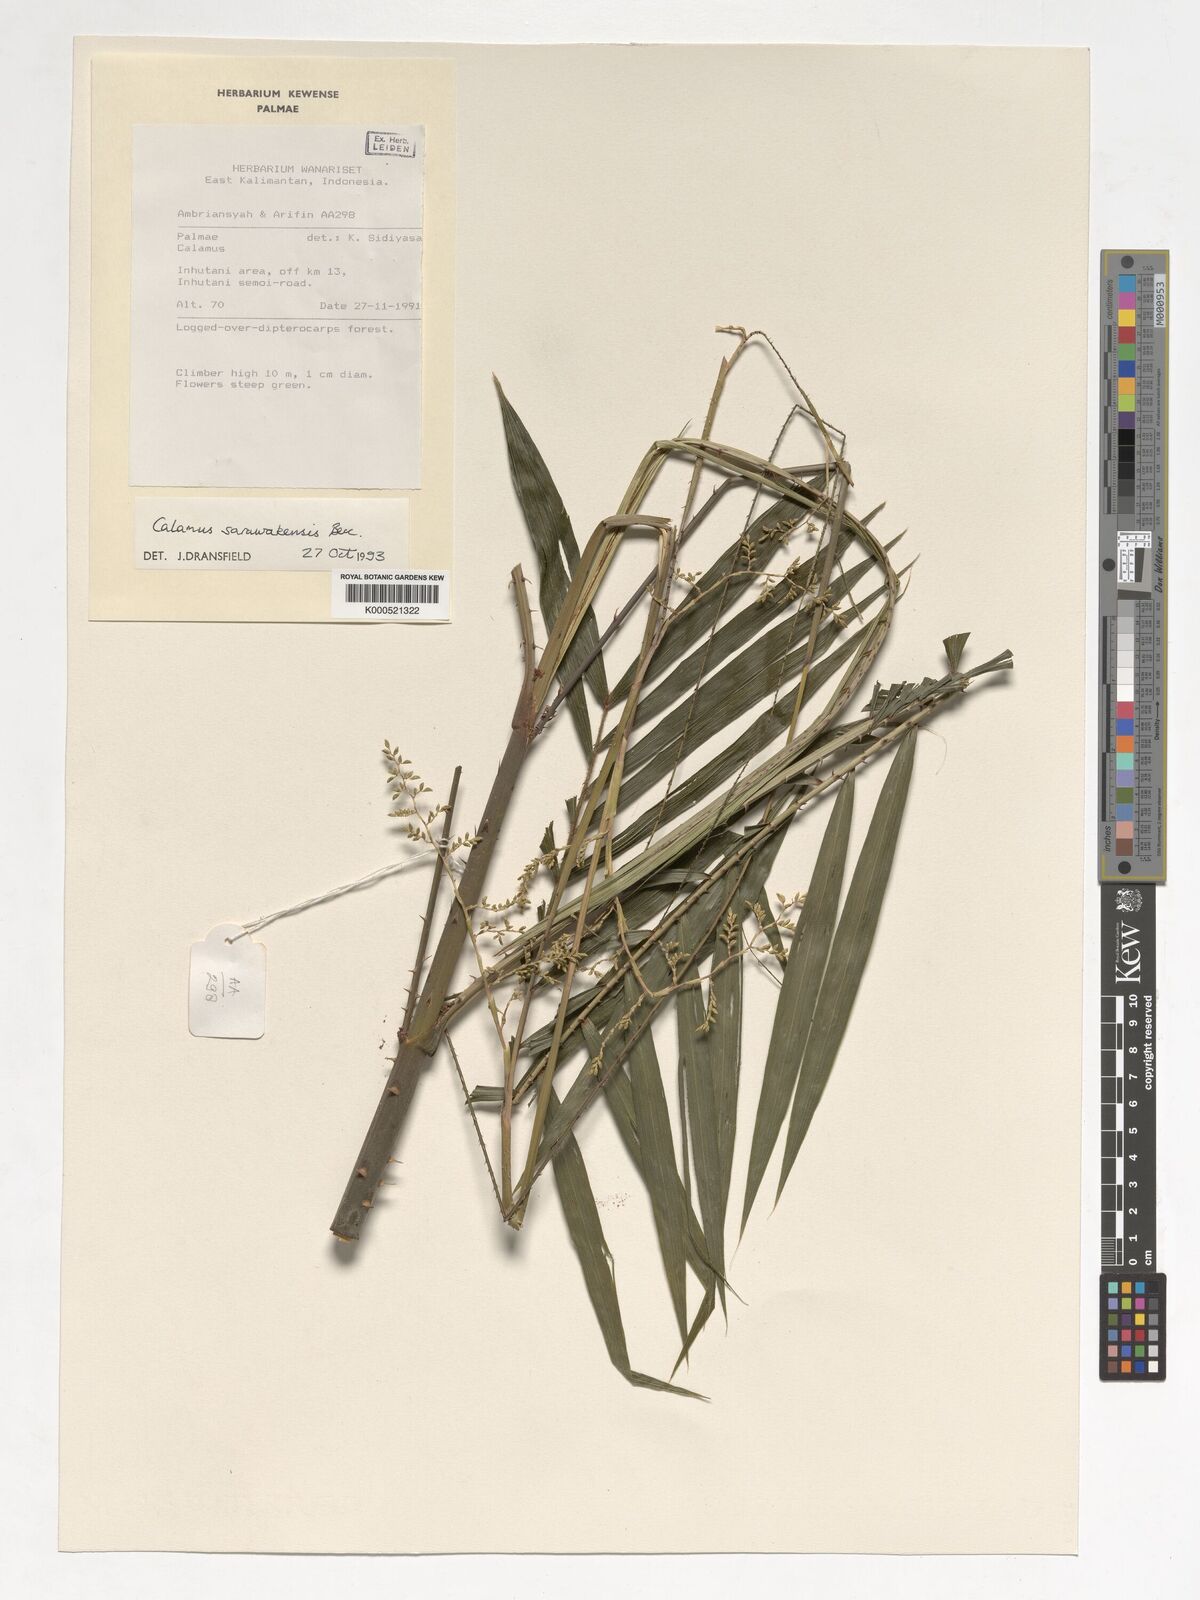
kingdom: Plantae
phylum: Tracheophyta
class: Liliopsida
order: Arecales
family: Arecaceae
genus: Calamus
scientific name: Calamus sarawakensis
